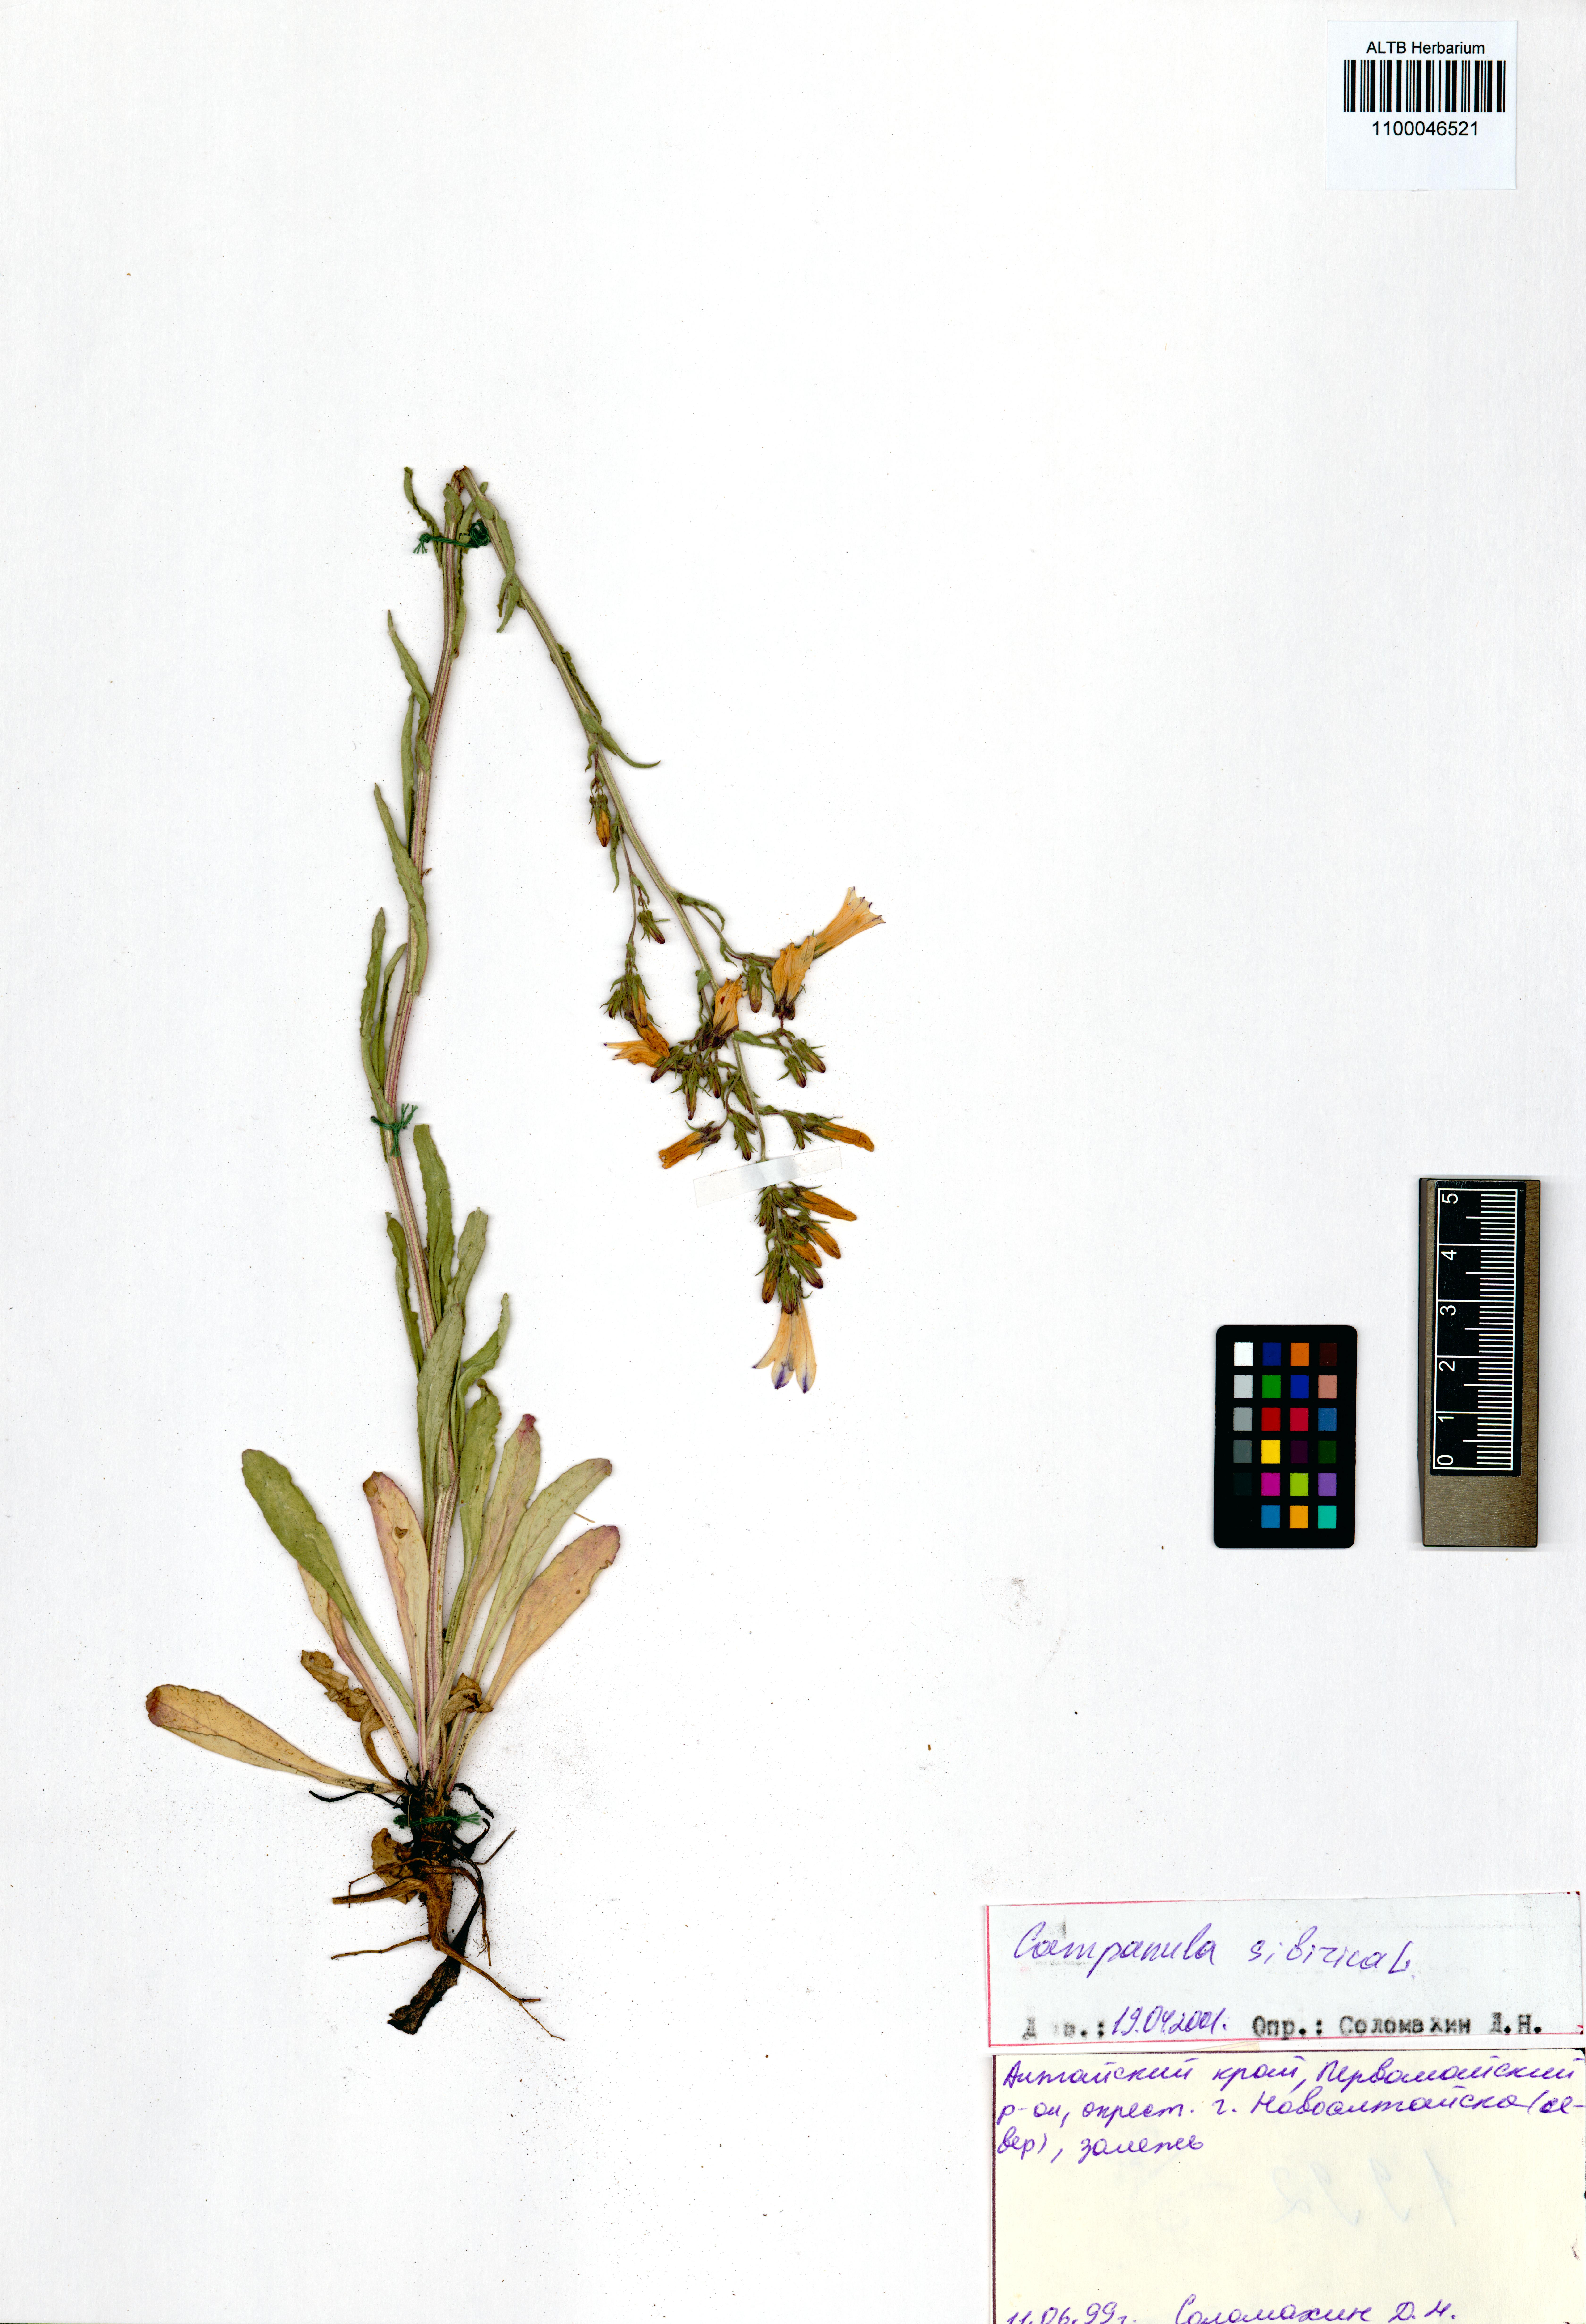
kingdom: Plantae
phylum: Tracheophyta
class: Magnoliopsida
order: Asterales
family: Campanulaceae
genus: Campanula
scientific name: Campanula sibirica
